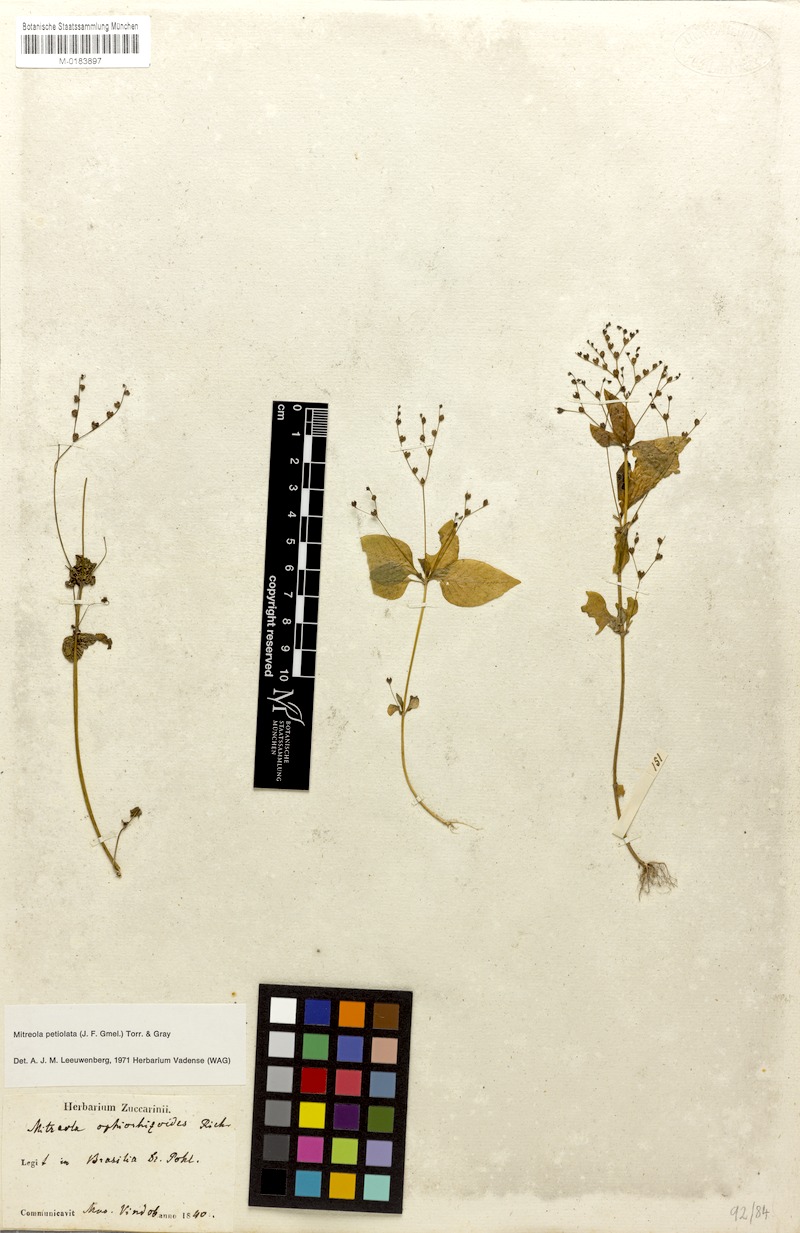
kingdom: Plantae
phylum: Tracheophyta
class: Magnoliopsida
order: Gentianales
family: Loganiaceae
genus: Mitreola
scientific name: Mitreola petiolata
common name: Lax hornpod
